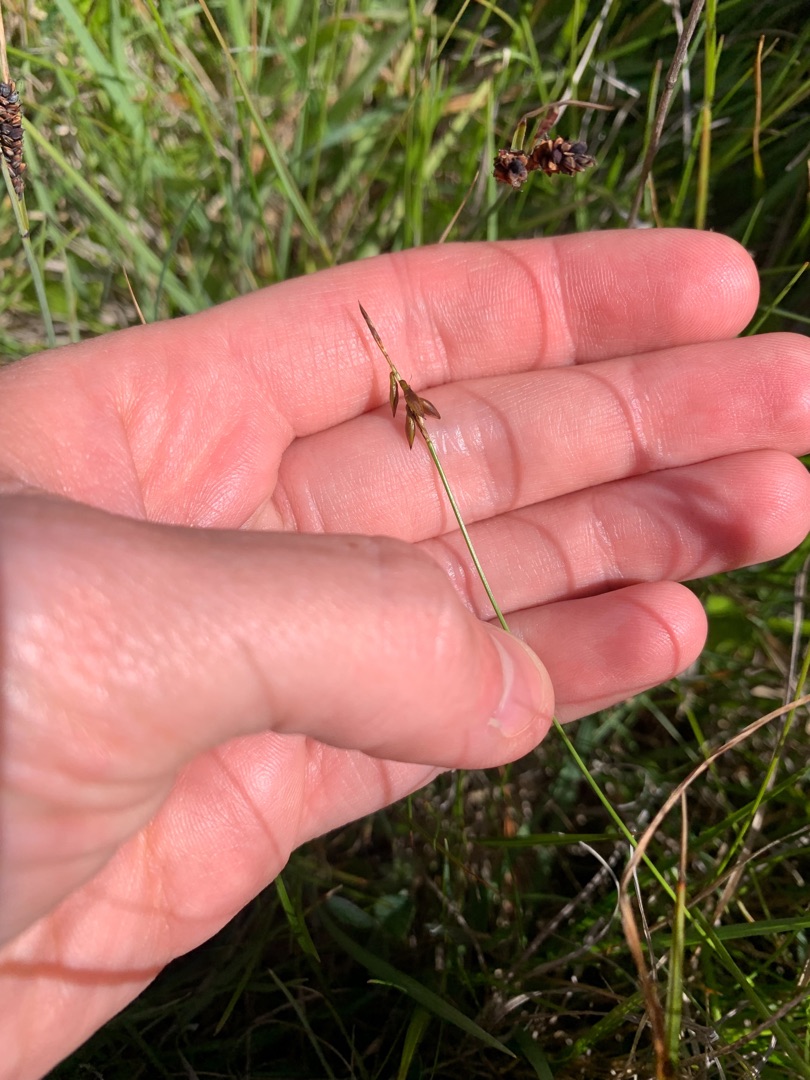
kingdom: Plantae
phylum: Tracheophyta
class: Liliopsida
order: Poales
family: Cyperaceae
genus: Carex
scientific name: Carex pulicaris
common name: Loppe-star
